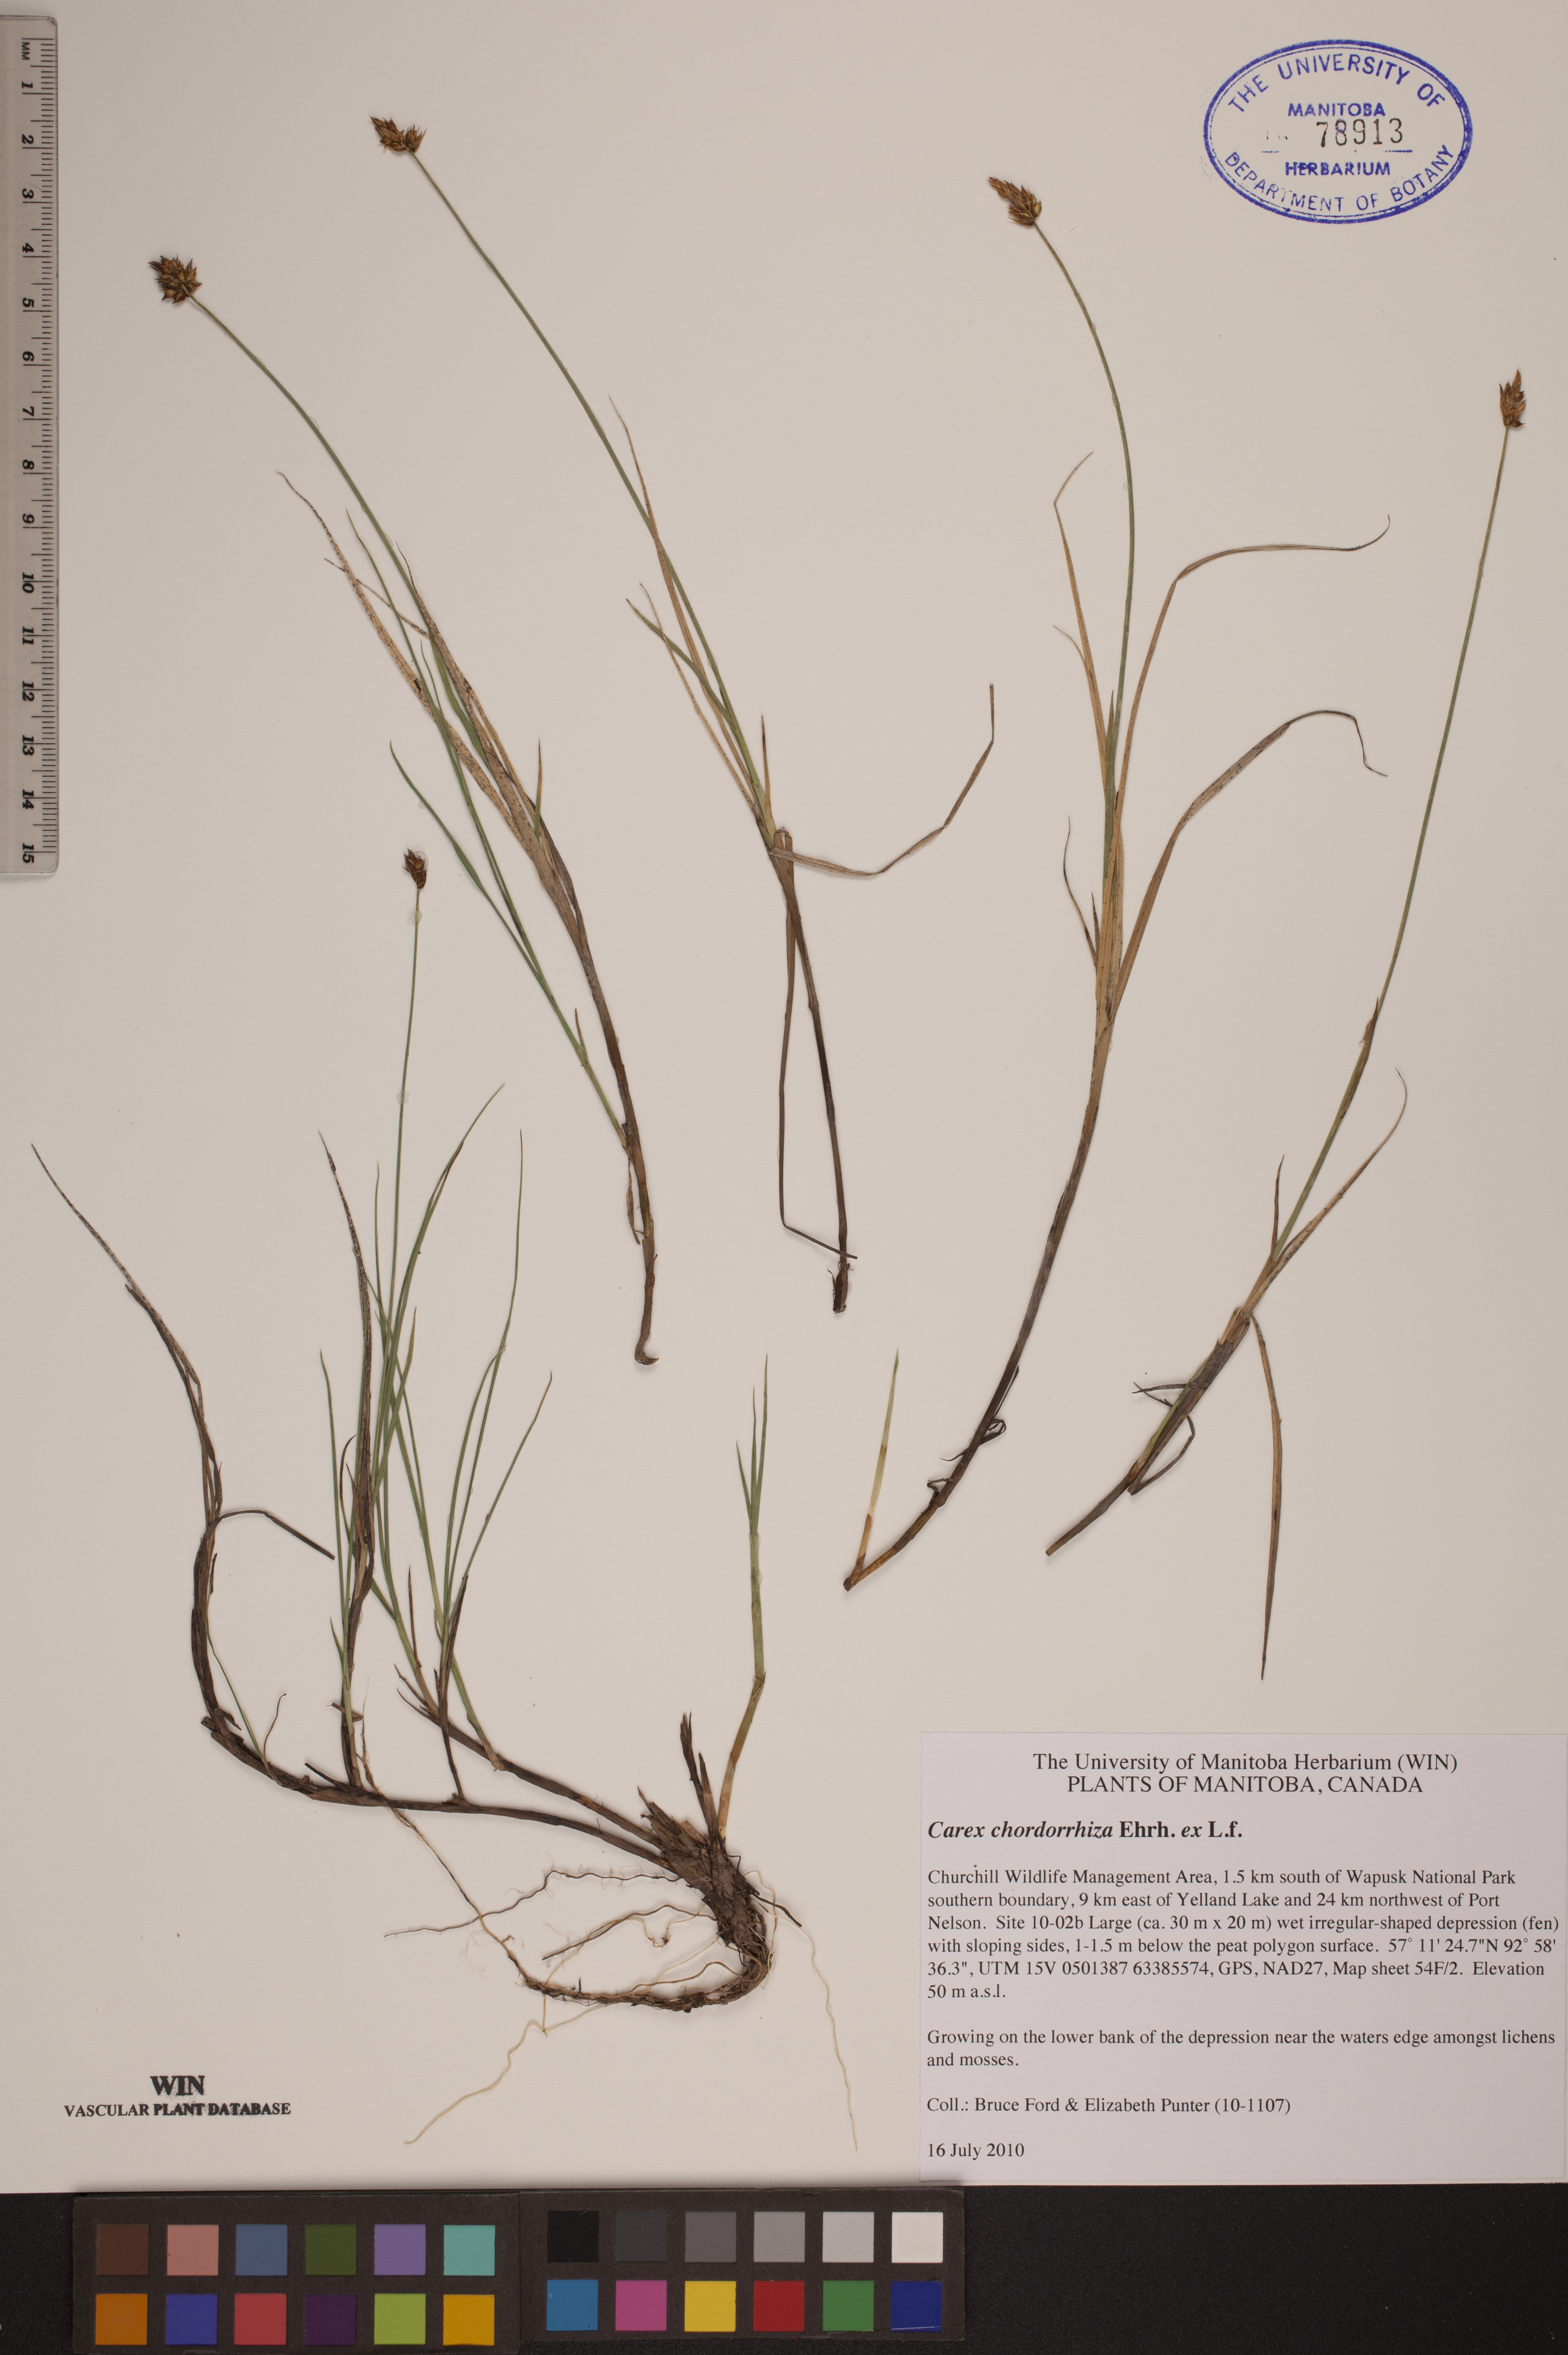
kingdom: Plantae
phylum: Tracheophyta
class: Liliopsida
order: Poales
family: Cyperaceae
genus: Carex
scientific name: Carex chordorrhiza
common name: String sedge
